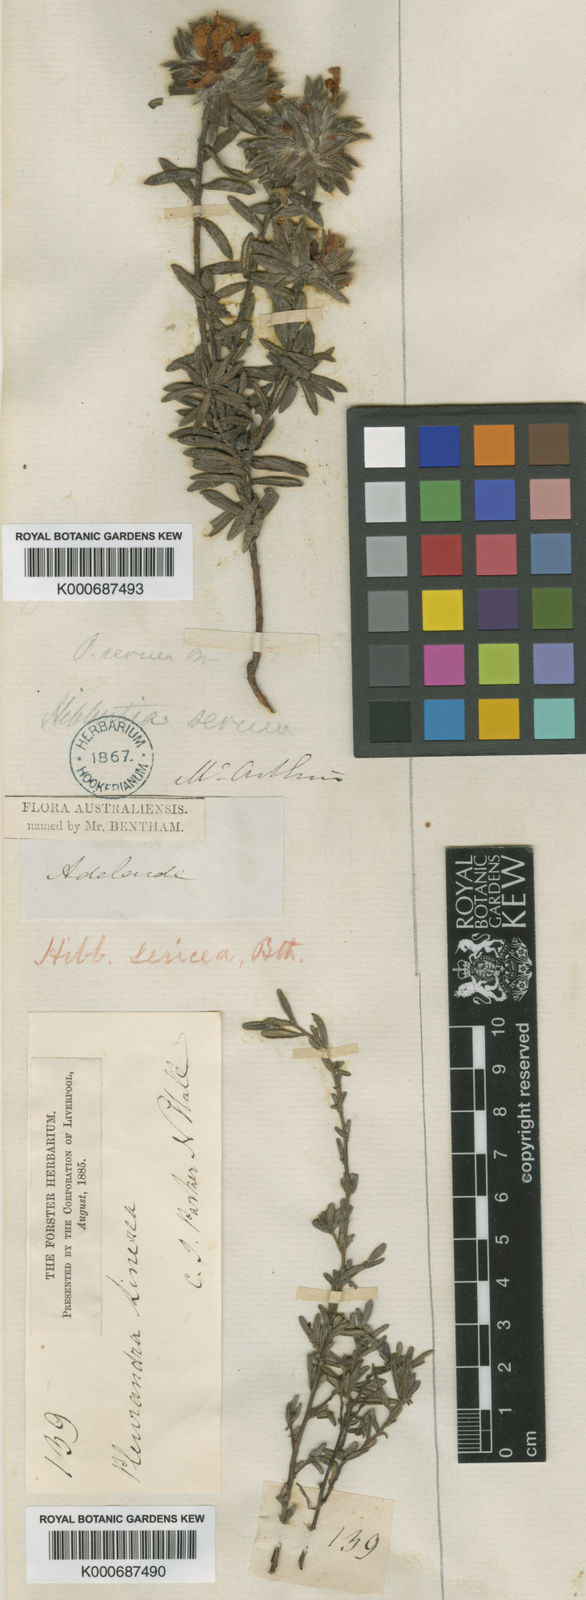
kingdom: Plantae
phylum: Tracheophyta
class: Magnoliopsida
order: Dilleniales
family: Dilleniaceae
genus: Hibbertia
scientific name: Hibbertia sericea
